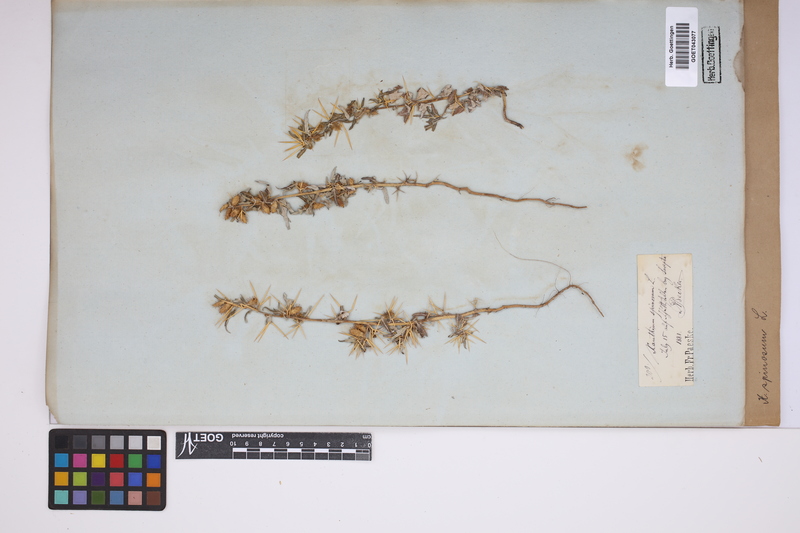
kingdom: Plantae
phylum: Tracheophyta
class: Magnoliopsida
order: Asterales
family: Asteraceae
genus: Xanthium
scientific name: Xanthium spinosum
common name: Spiny cocklebur
